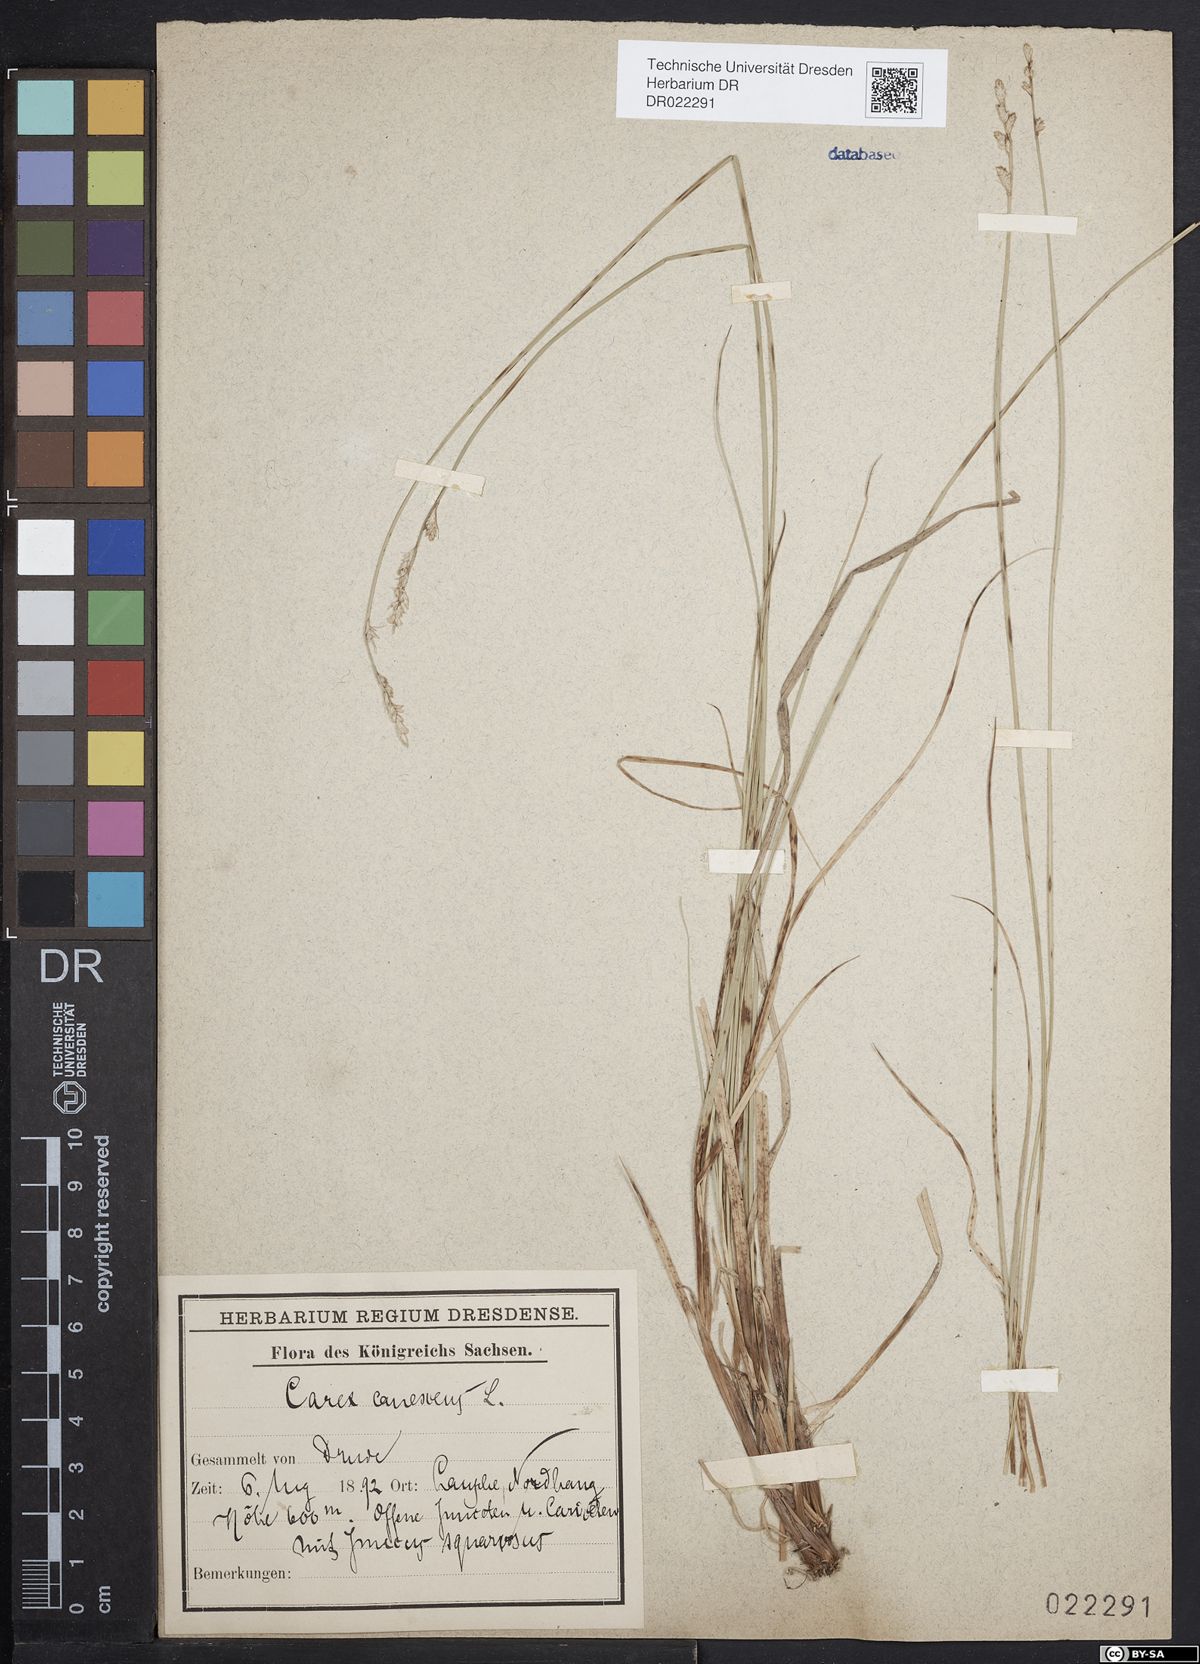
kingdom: Plantae
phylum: Tracheophyta
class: Liliopsida
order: Poales
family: Cyperaceae
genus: Carex
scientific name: Carex canescens
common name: White sedge
